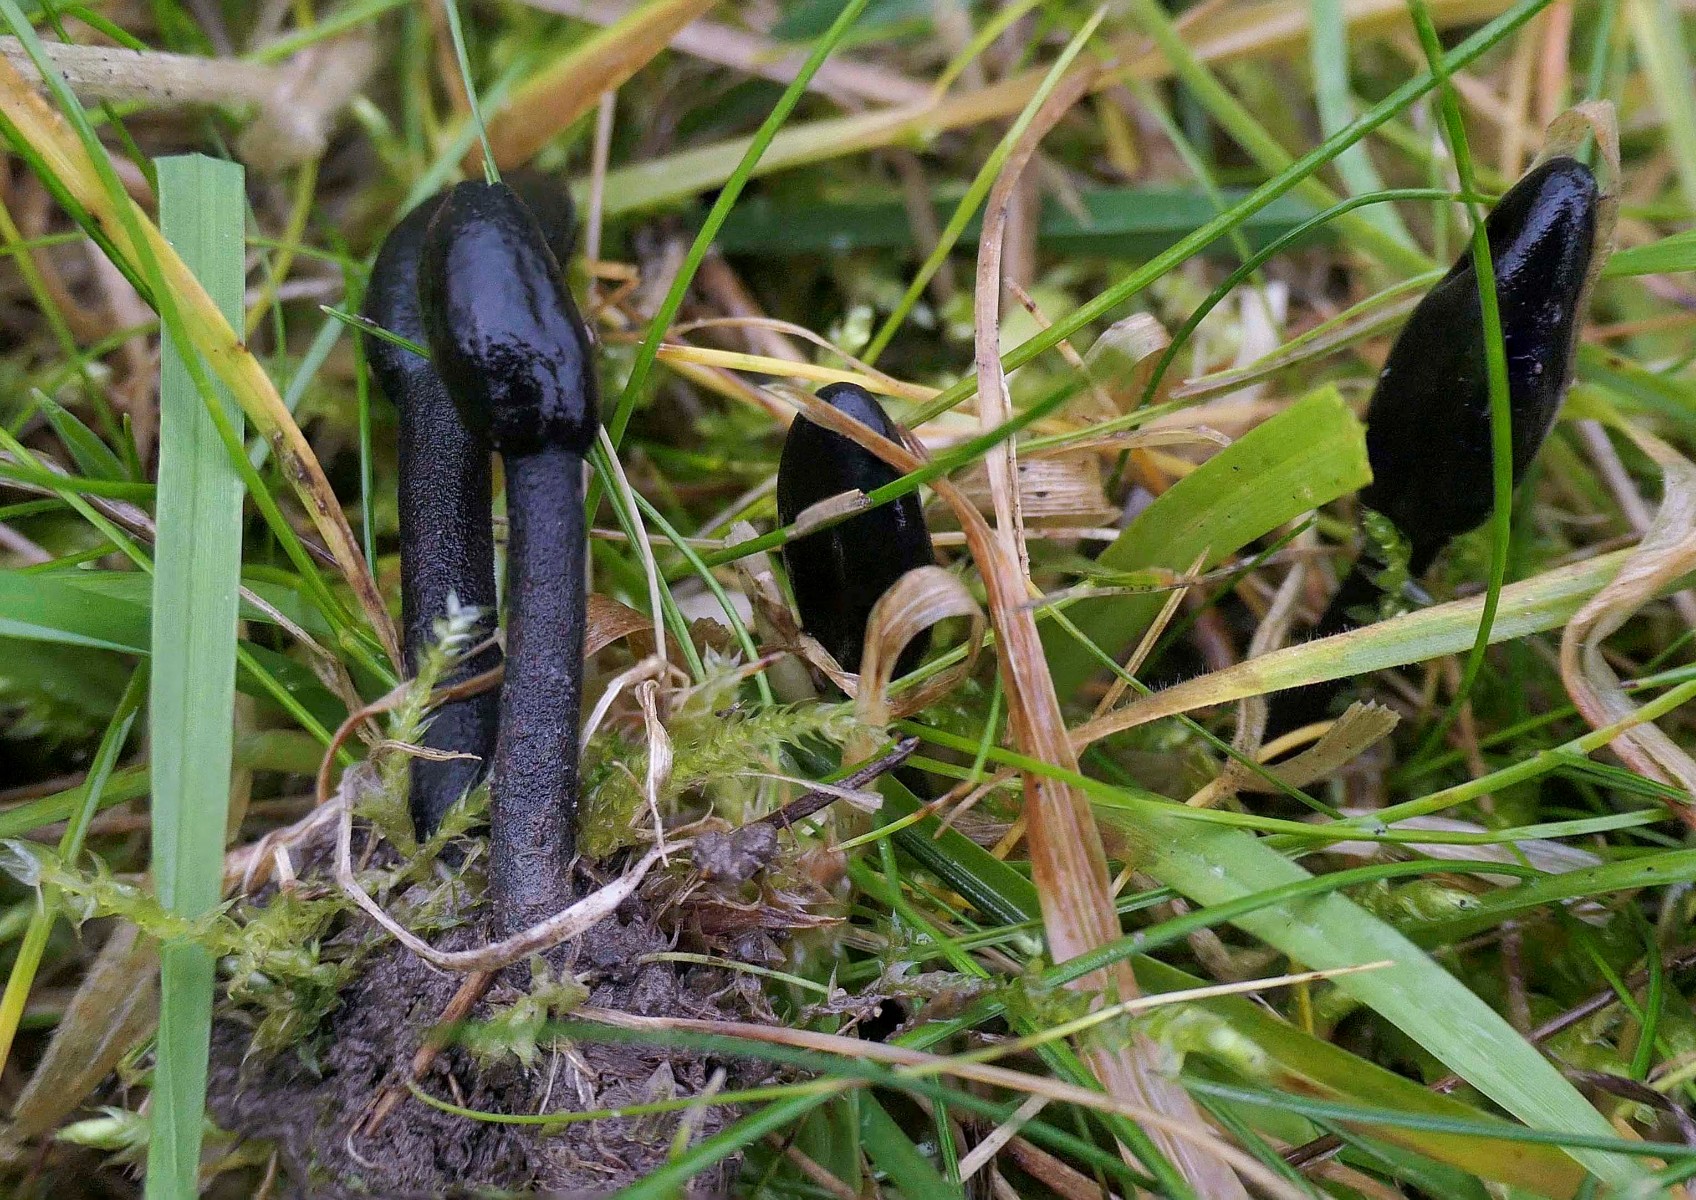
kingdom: Fungi
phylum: Ascomycota
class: Geoglossomycetes
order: Geoglossales
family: Geoglossaceae
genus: Trichoglossum
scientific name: Trichoglossum
